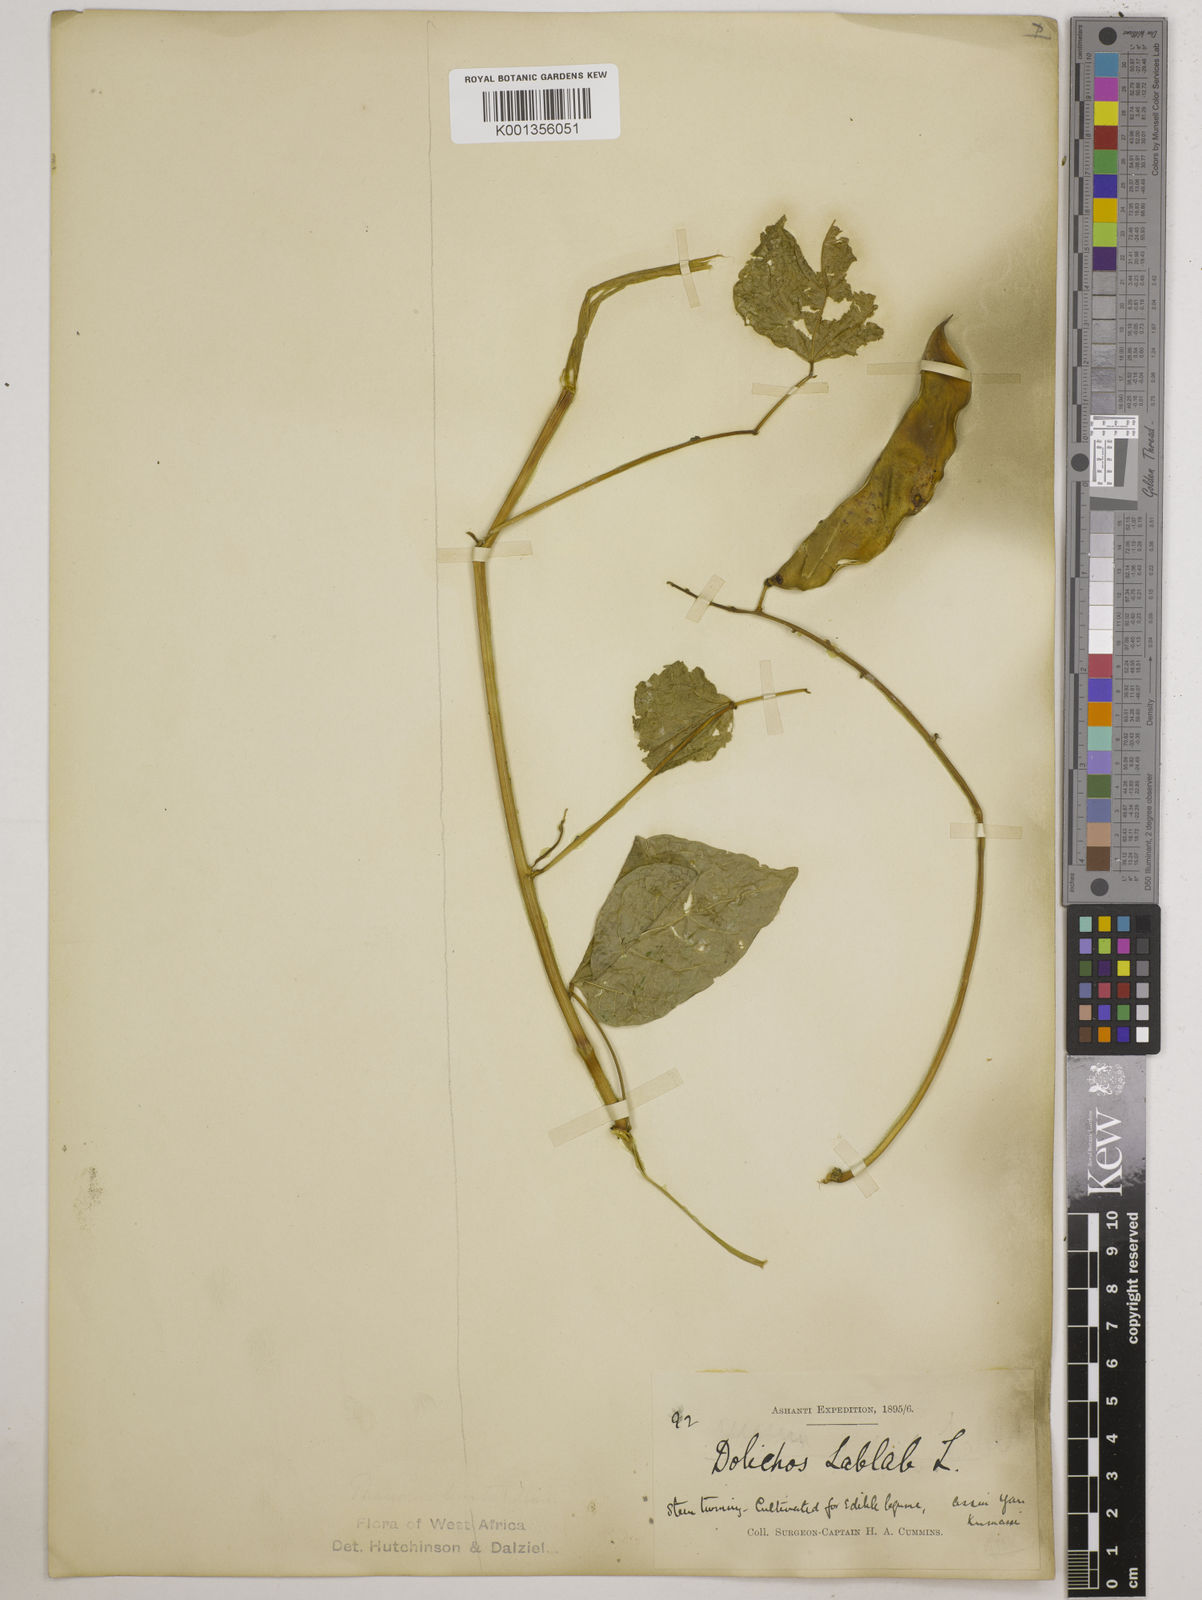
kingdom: Plantae
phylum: Tracheophyta
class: Magnoliopsida
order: Fabales
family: Fabaceae
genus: Lablab
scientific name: Lablab purpureus
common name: Lablab-bean
